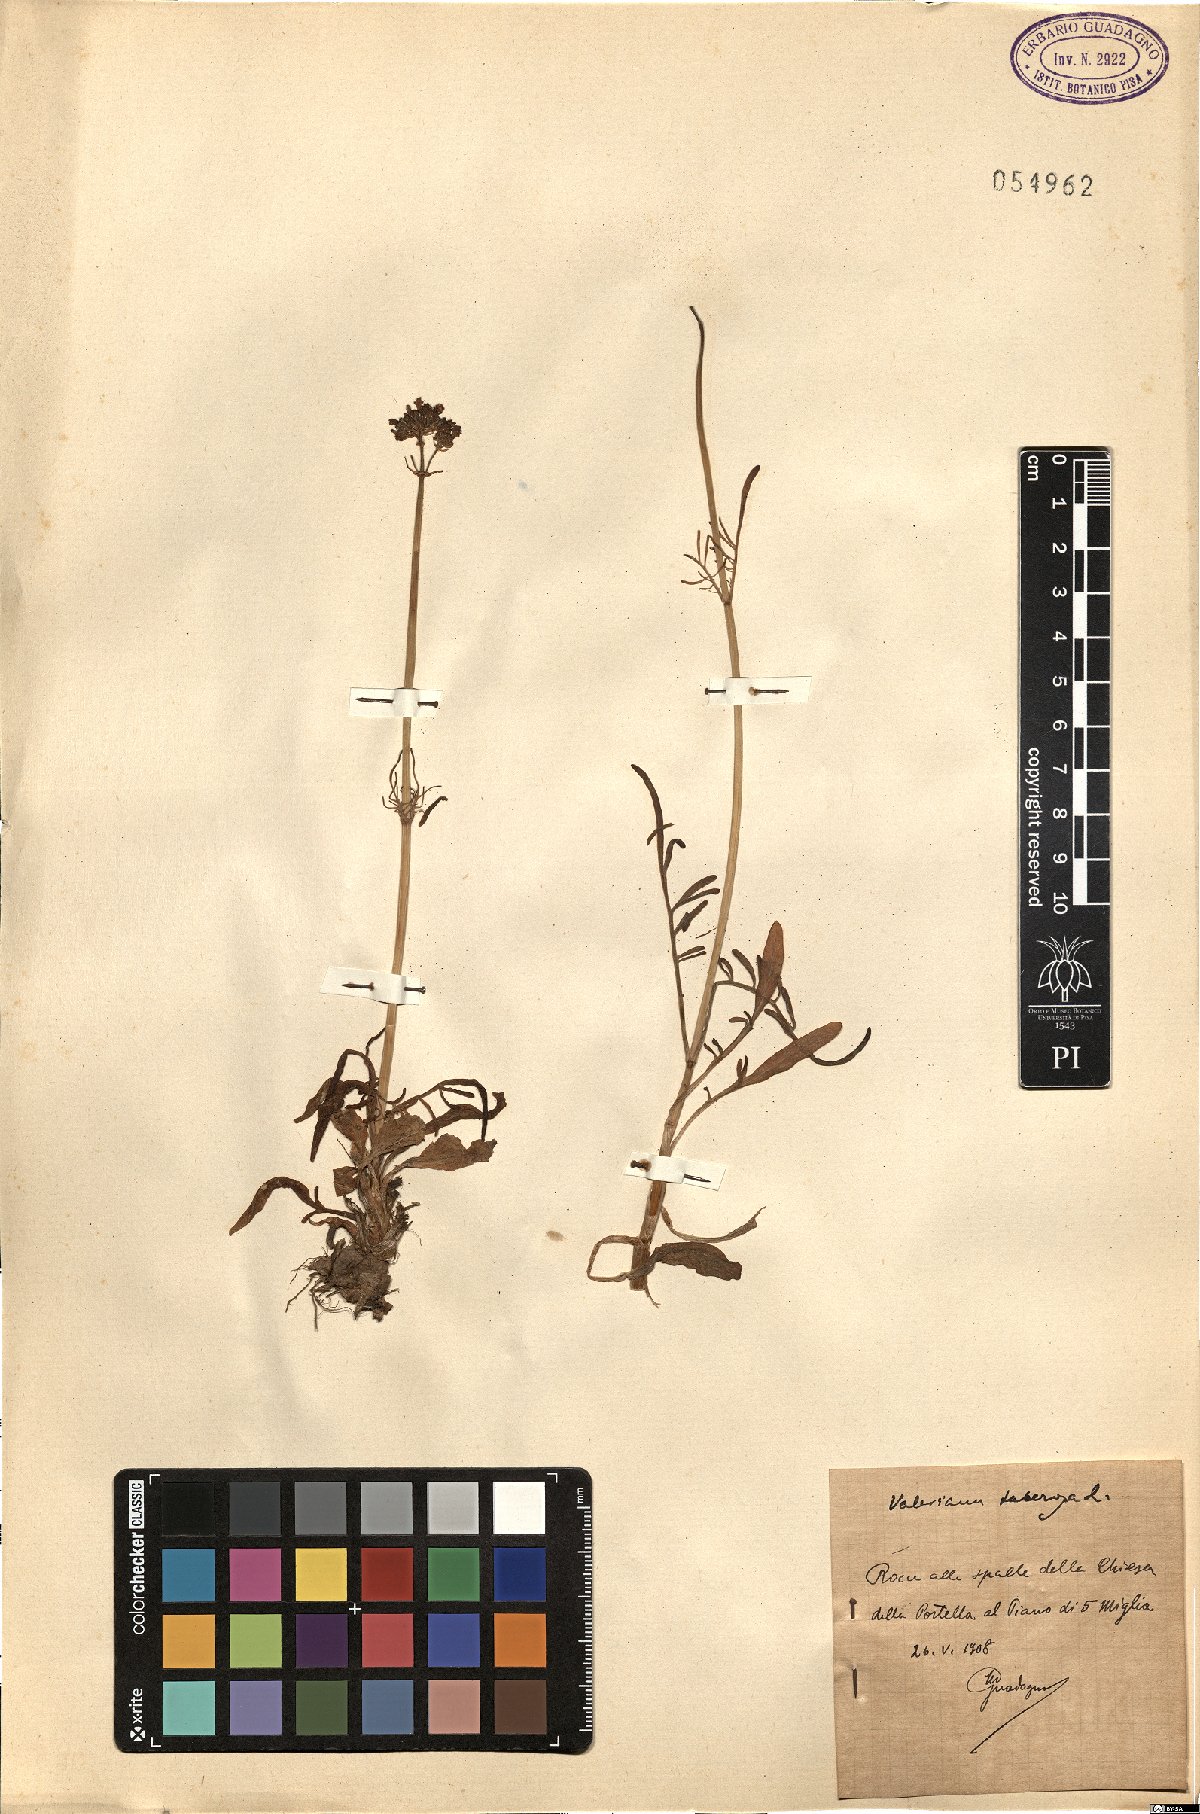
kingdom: Plantae
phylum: Tracheophyta
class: Magnoliopsida
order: Dipsacales
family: Caprifoliaceae
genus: Valeriana
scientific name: Valeriana tuberosa
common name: Tuberous valerian
